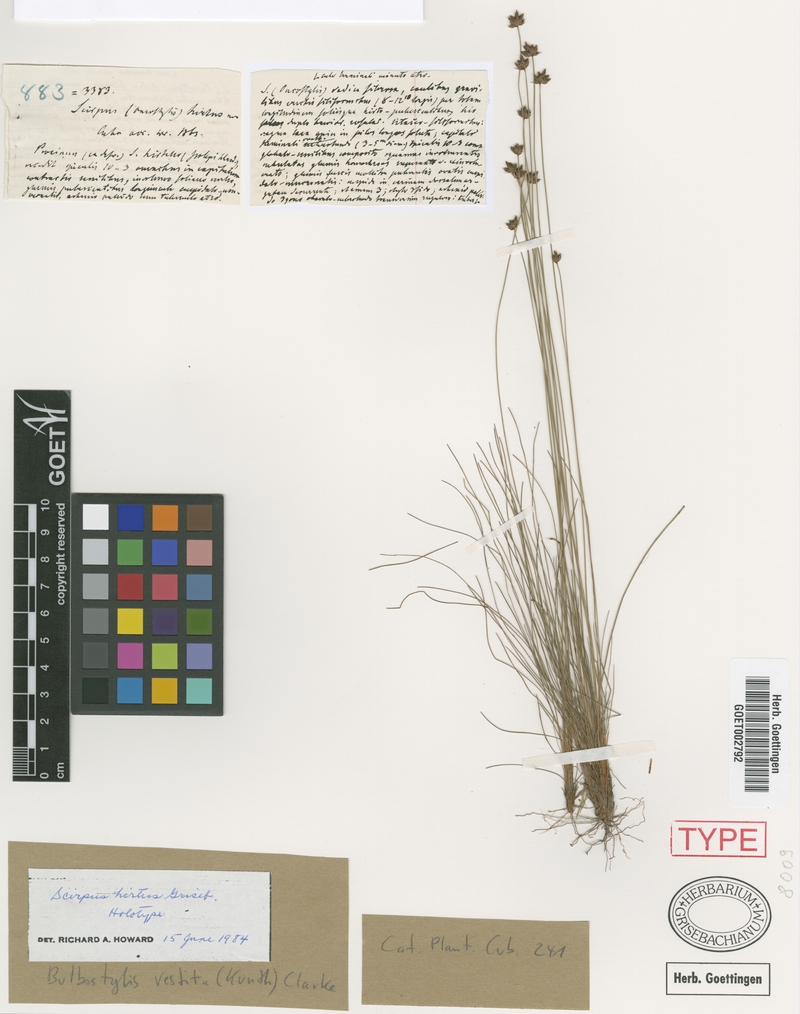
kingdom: Plantae
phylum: Tracheophyta
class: Liliopsida
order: Poales
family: Cyperaceae
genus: Bulbostylis
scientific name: Bulbostylis vestita
